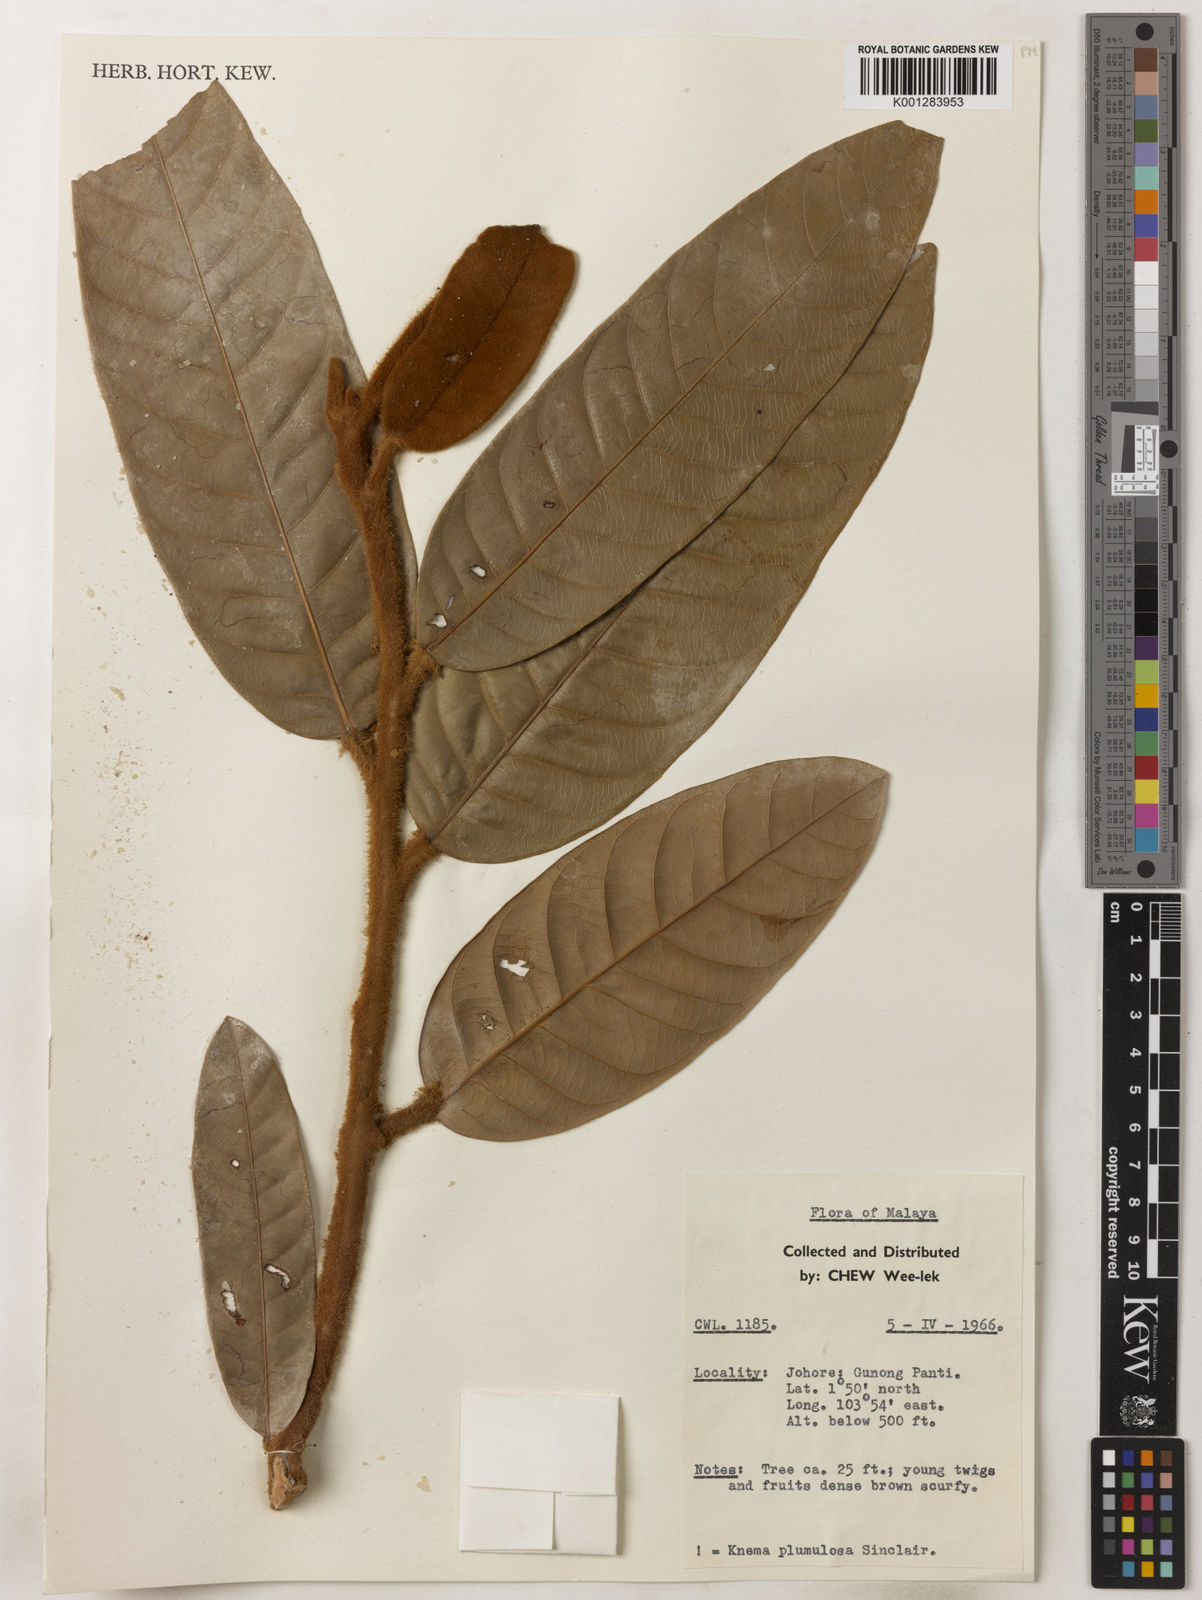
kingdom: Plantae
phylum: Tracheophyta
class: Magnoliopsida
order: Magnoliales
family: Myristicaceae
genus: Knema
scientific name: Knema plumulosa
